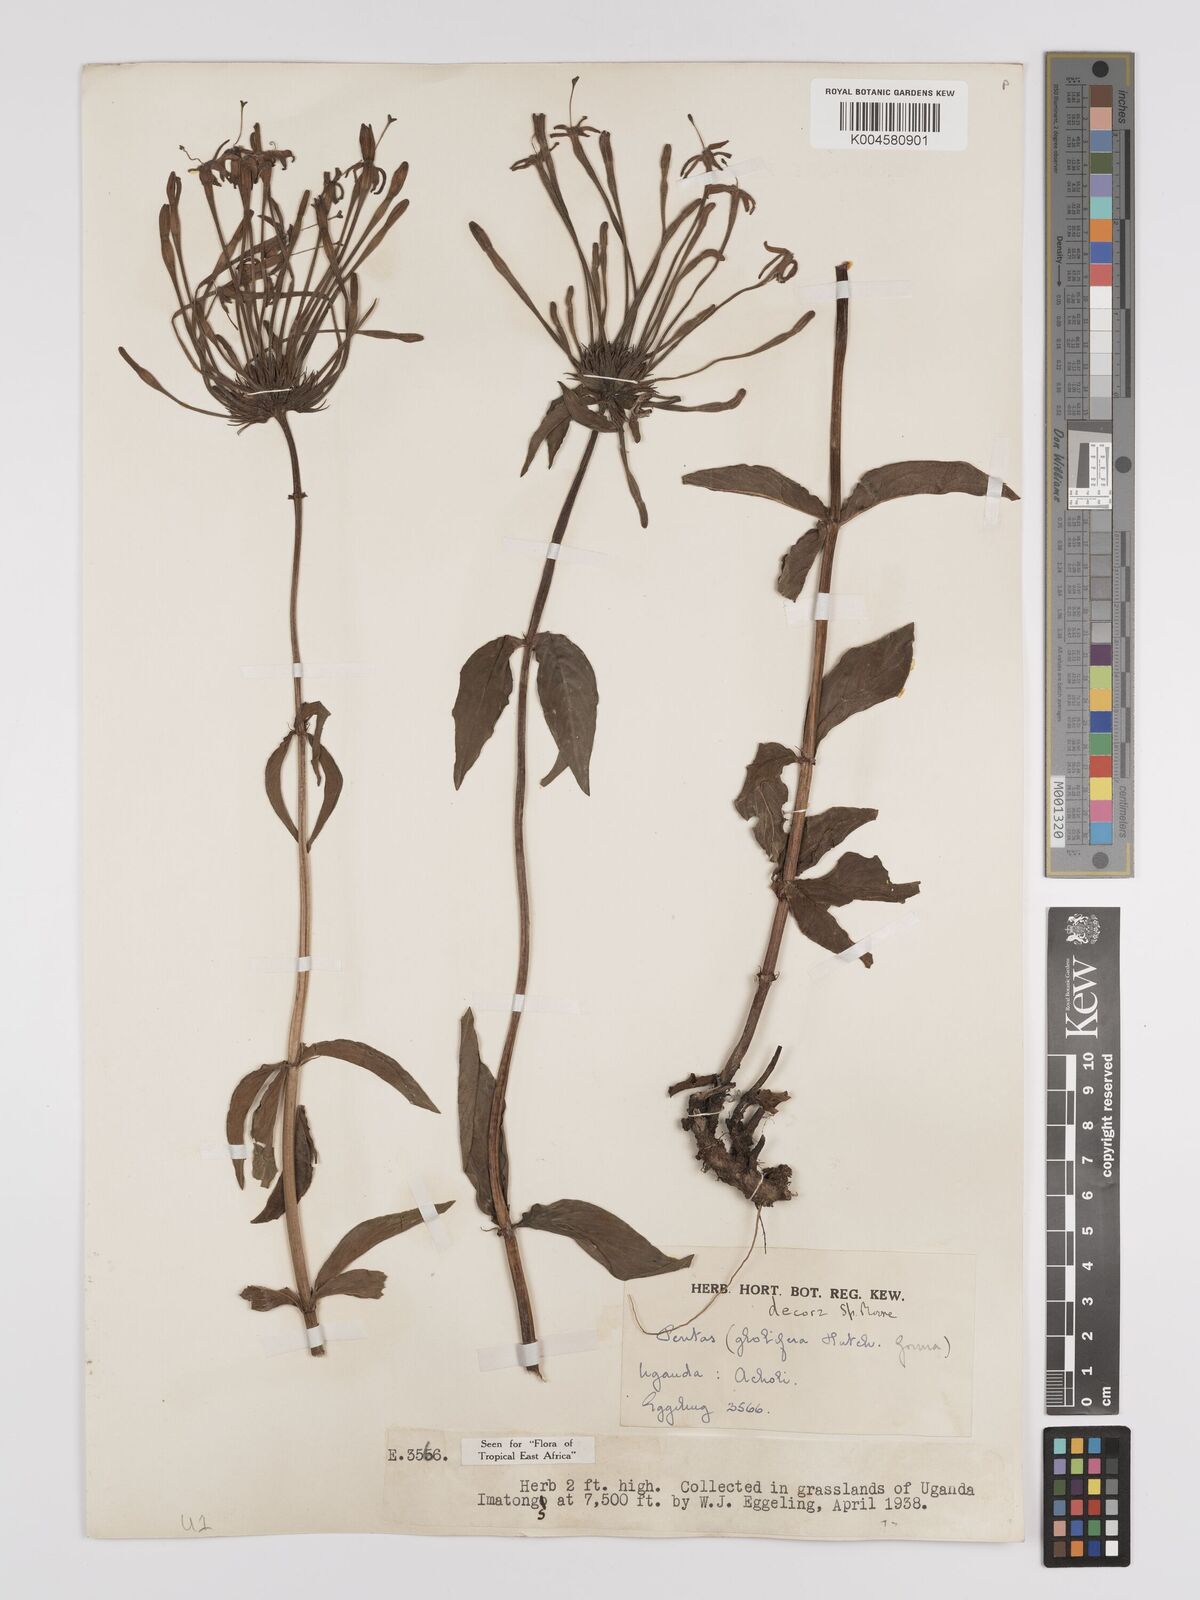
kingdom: Plantae
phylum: Tracheophyta
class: Magnoliopsida
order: Gentianales
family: Rubiaceae
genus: Dolichopentas
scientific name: Dolichopentas decora
